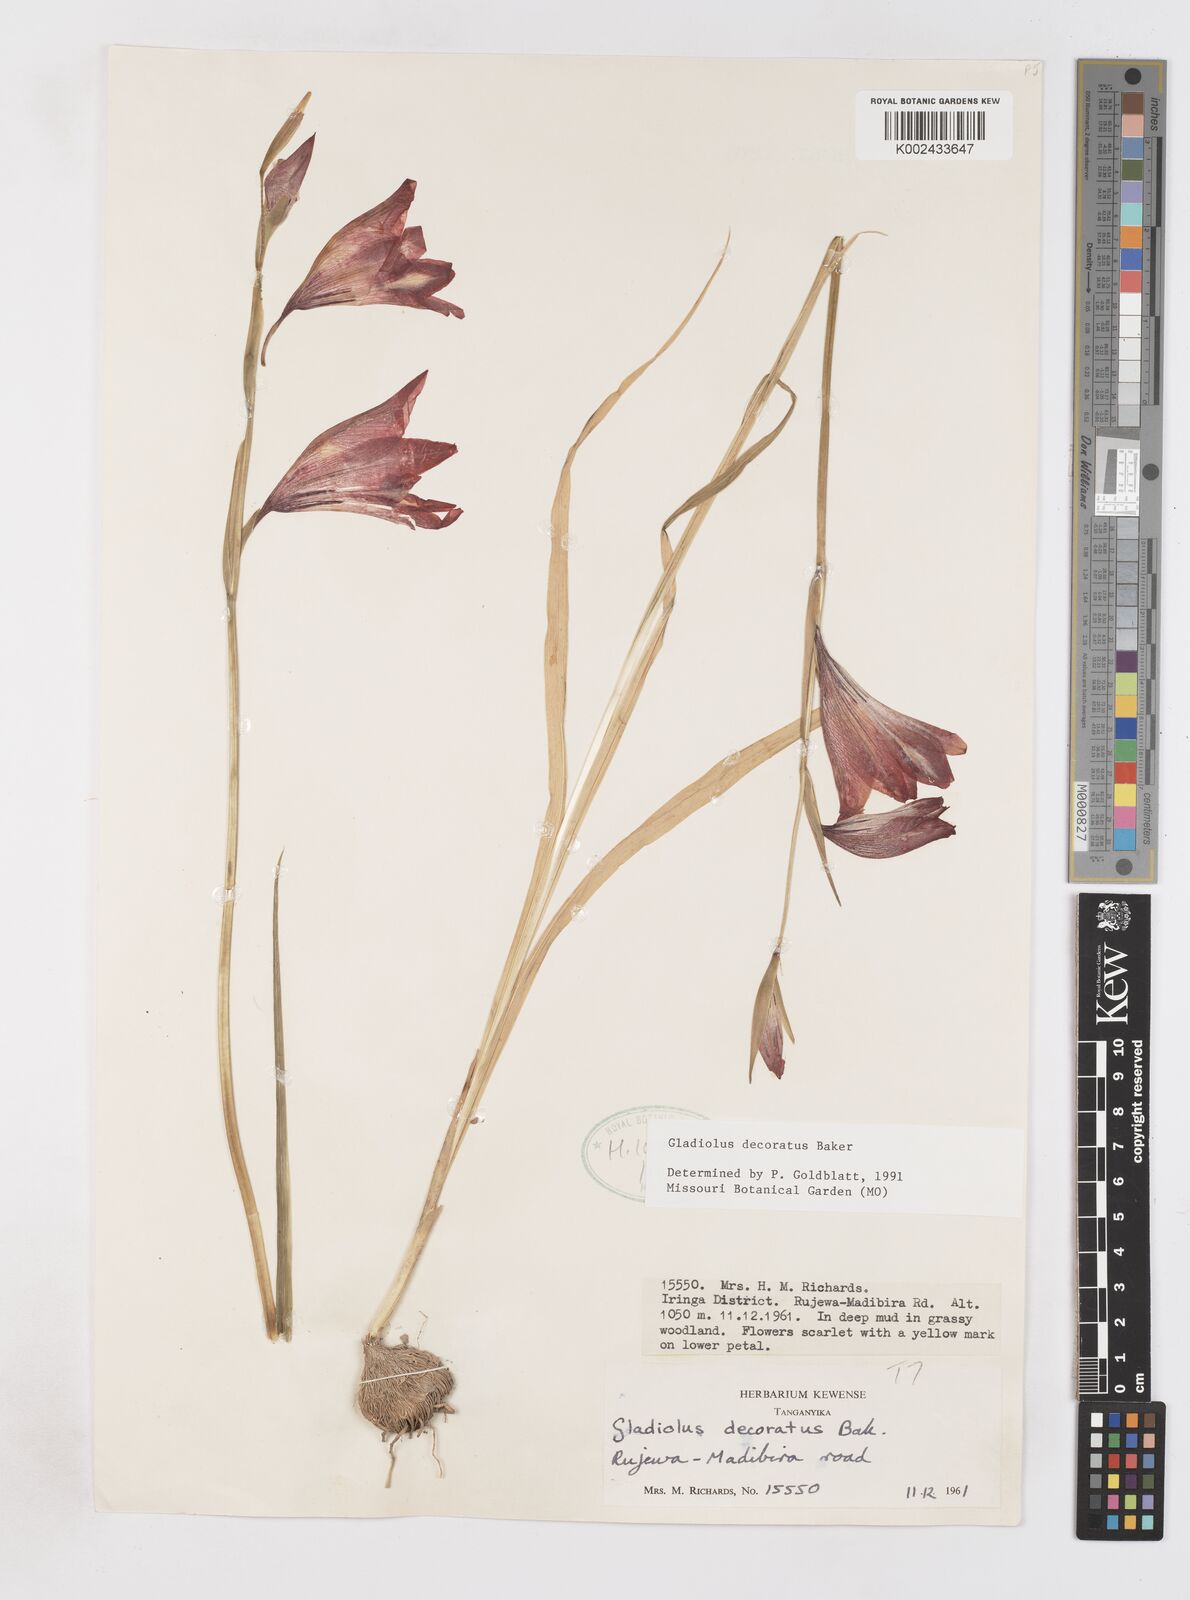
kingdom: Plantae
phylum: Tracheophyta
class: Liliopsida
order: Asparagales
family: Iridaceae
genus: Gladiolus
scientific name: Gladiolus decoratus
